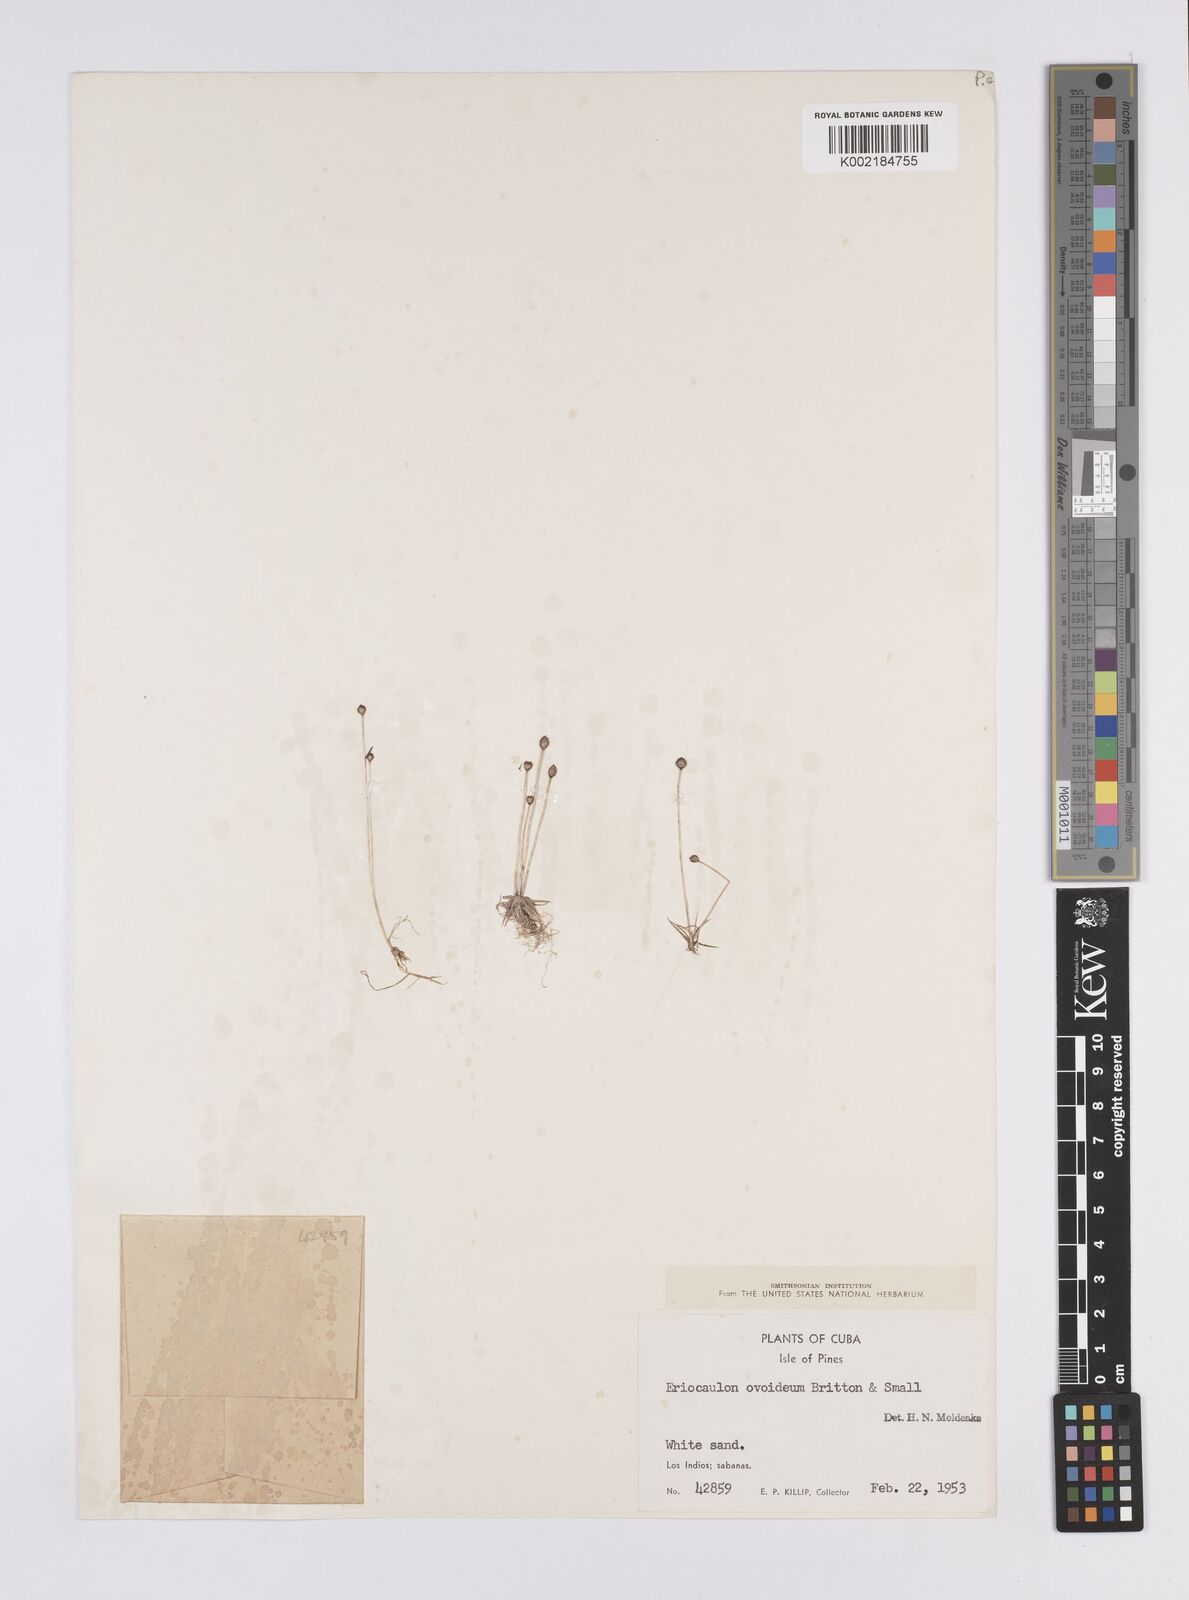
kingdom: Plantae
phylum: Tracheophyta
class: Liliopsida
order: Poales
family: Eriocaulaceae
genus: Eriocaulon
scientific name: Eriocaulon ovoideum
